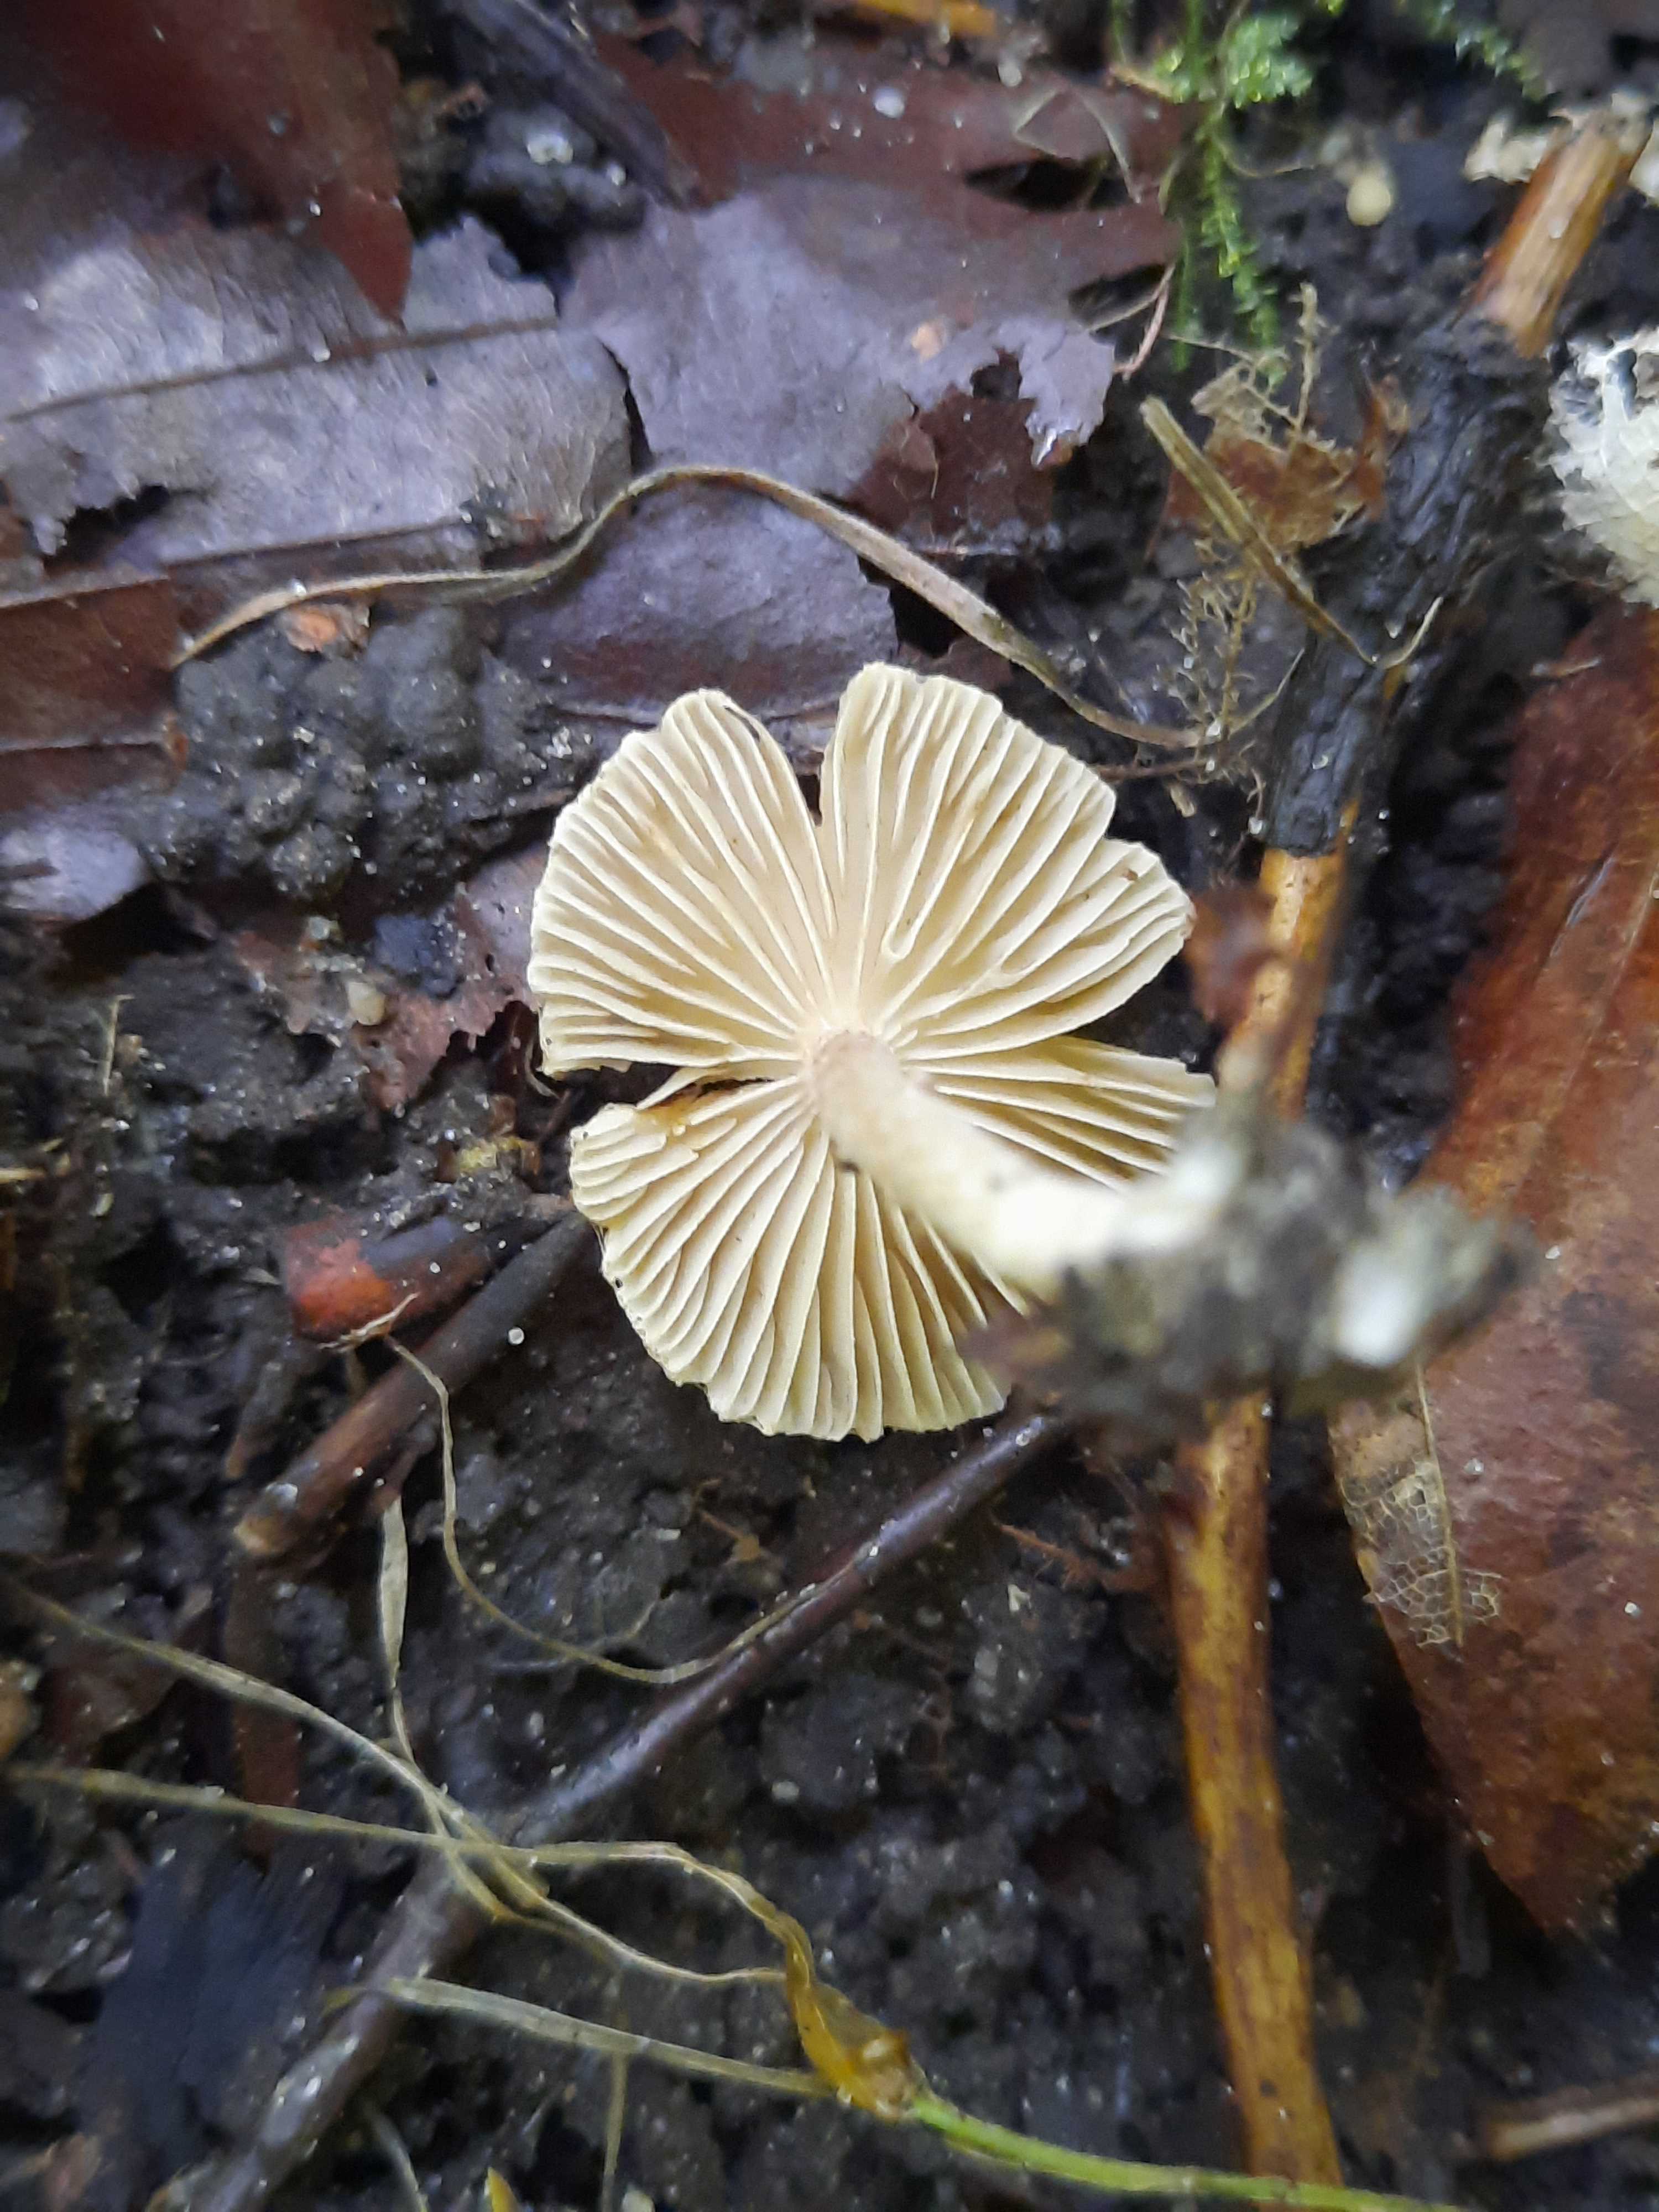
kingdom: Fungi
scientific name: Fungi
